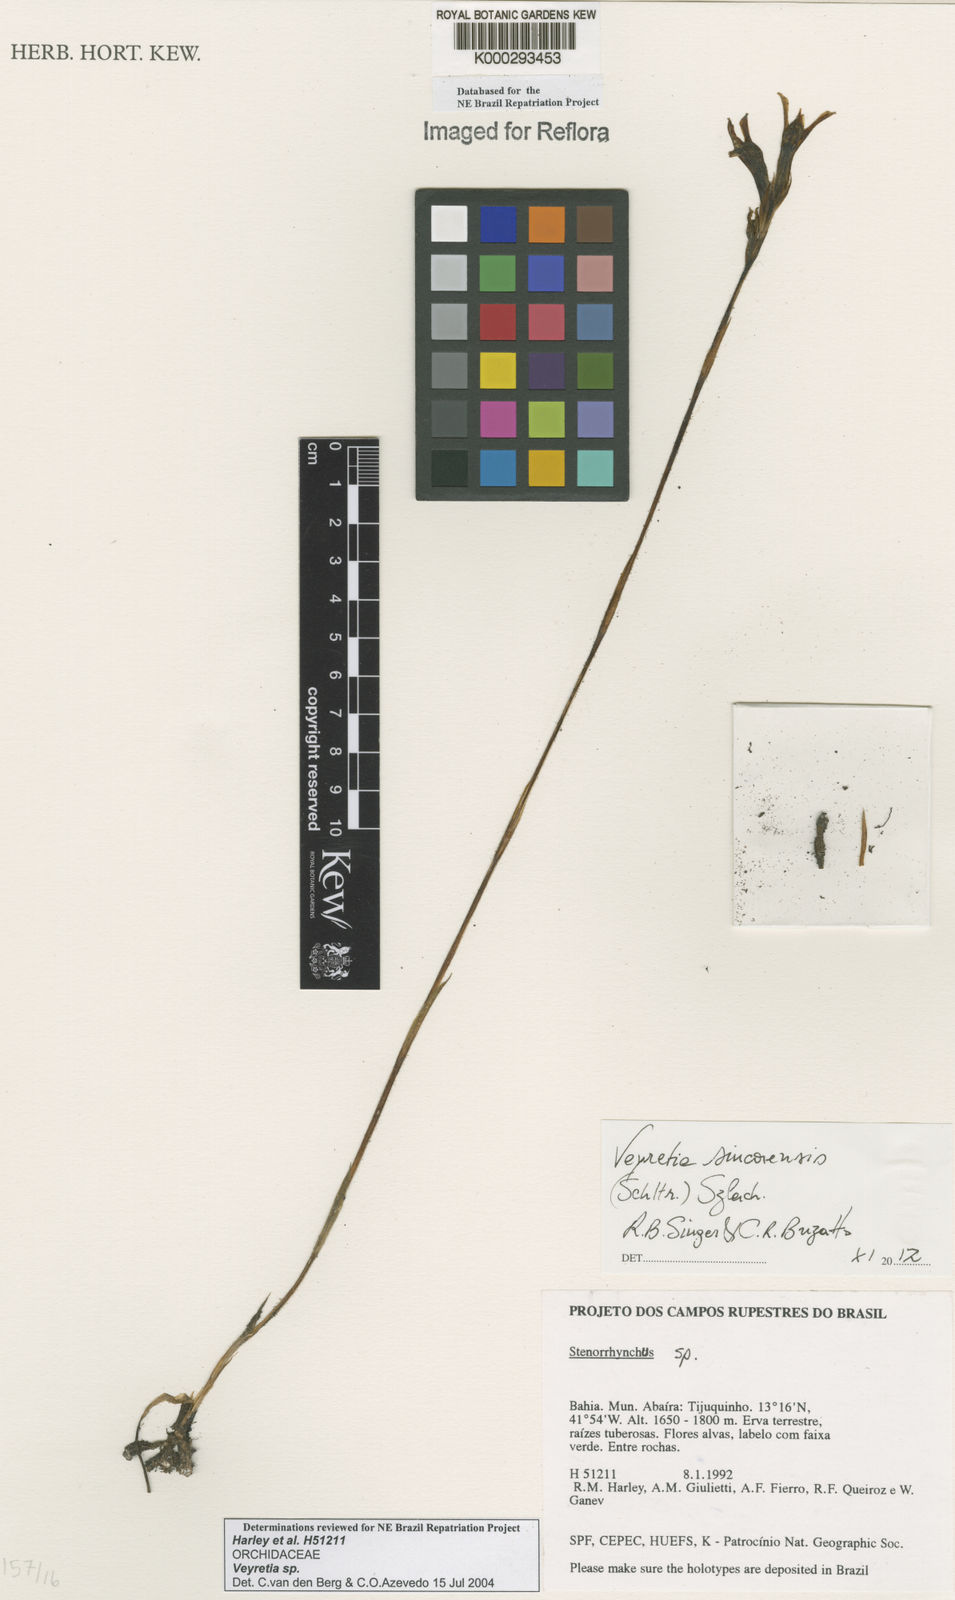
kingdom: Plantae
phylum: Tracheophyta
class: Liliopsida
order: Asparagales
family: Orchidaceae
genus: Veyretia
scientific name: Veyretia
